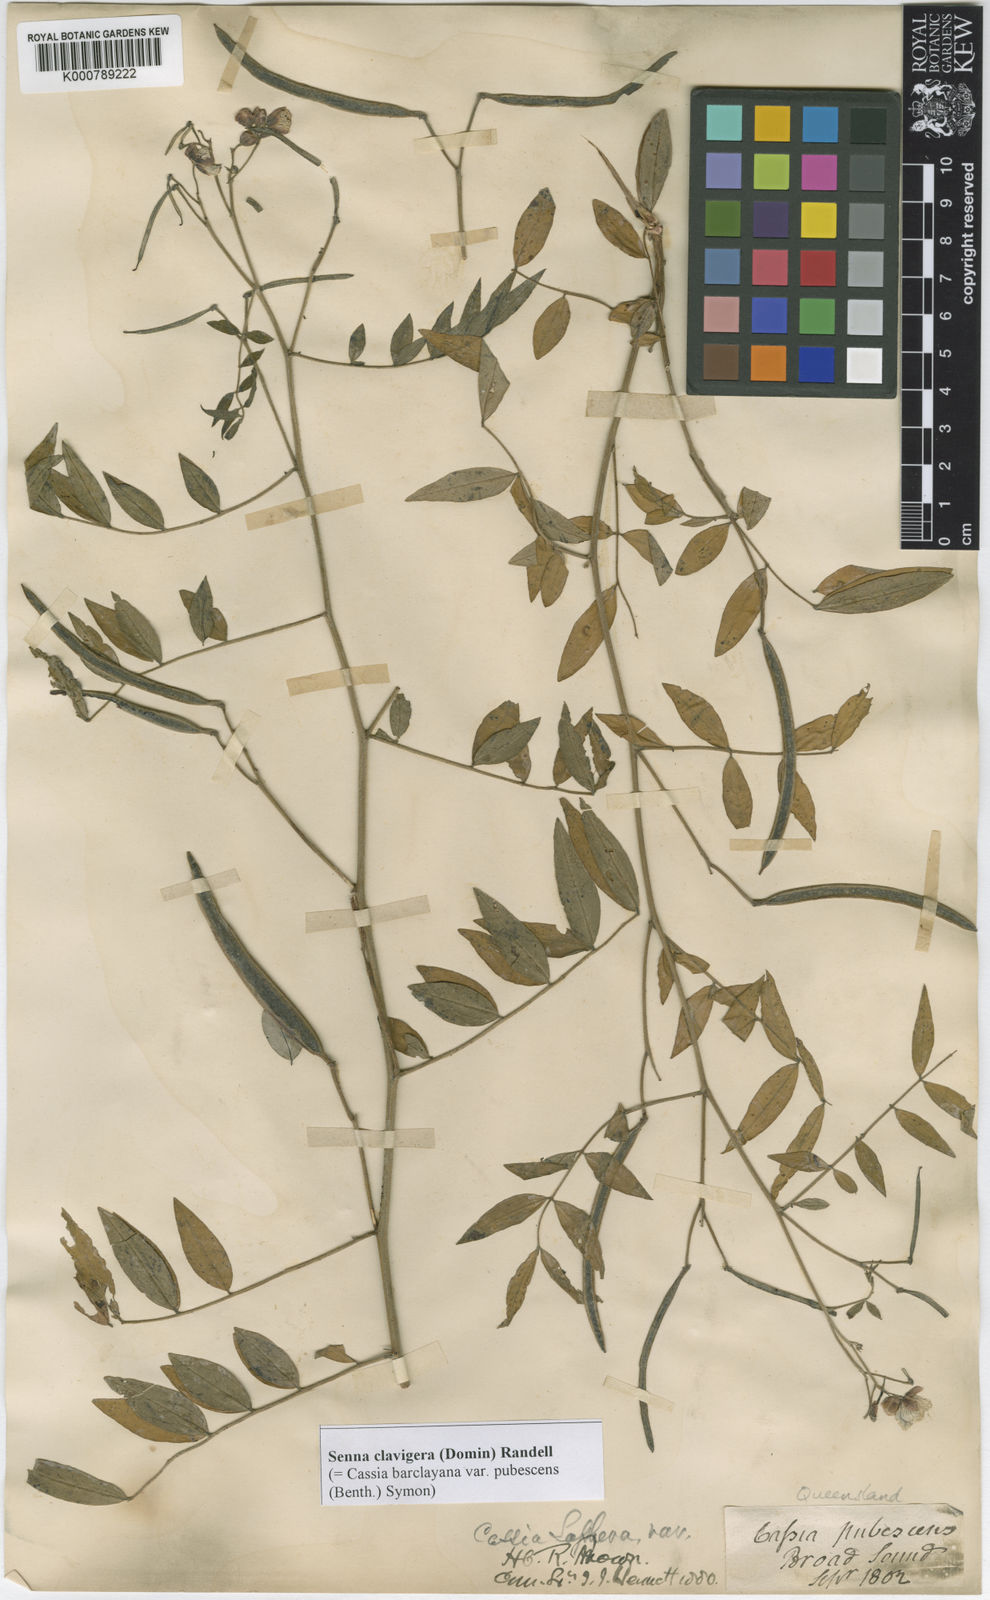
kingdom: Plantae
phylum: Tracheophyta
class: Magnoliopsida
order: Fabales
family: Fabaceae
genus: Senna
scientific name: Senna clavigera
